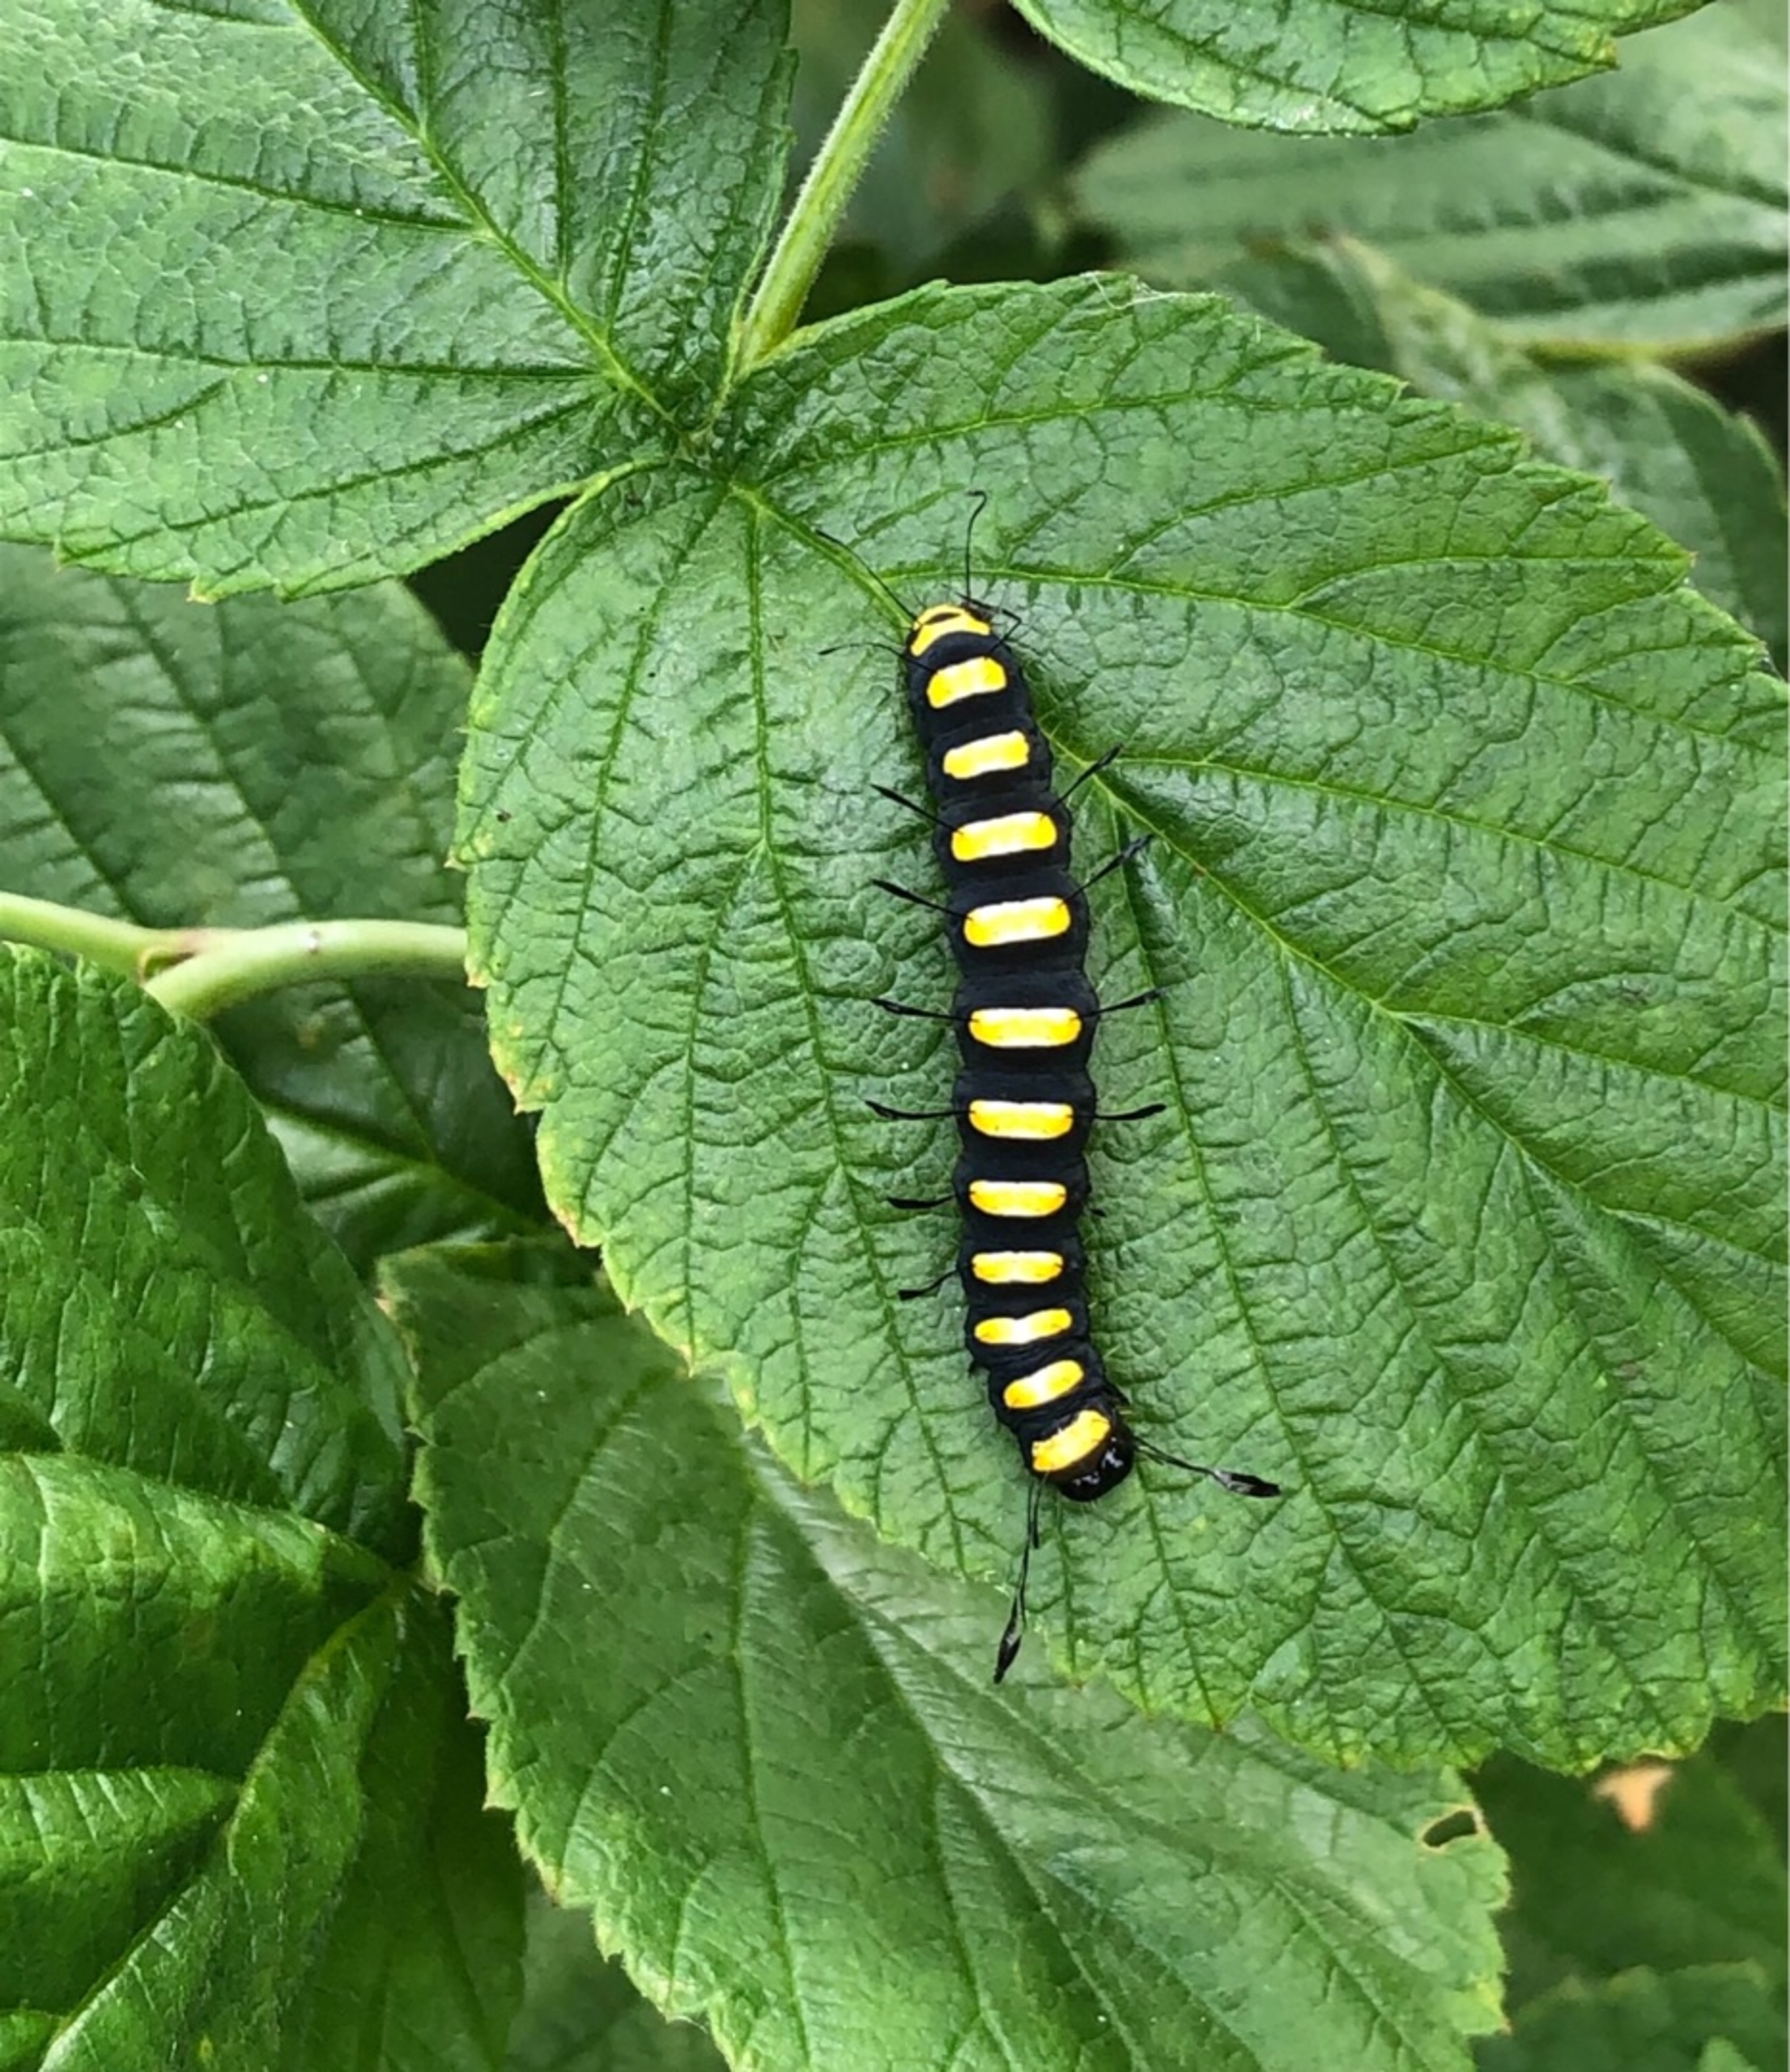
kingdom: Animalia
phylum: Arthropoda
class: Insecta
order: Lepidoptera
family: Noctuidae
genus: Acronicta
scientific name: Acronicta alni
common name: Kølleugle
